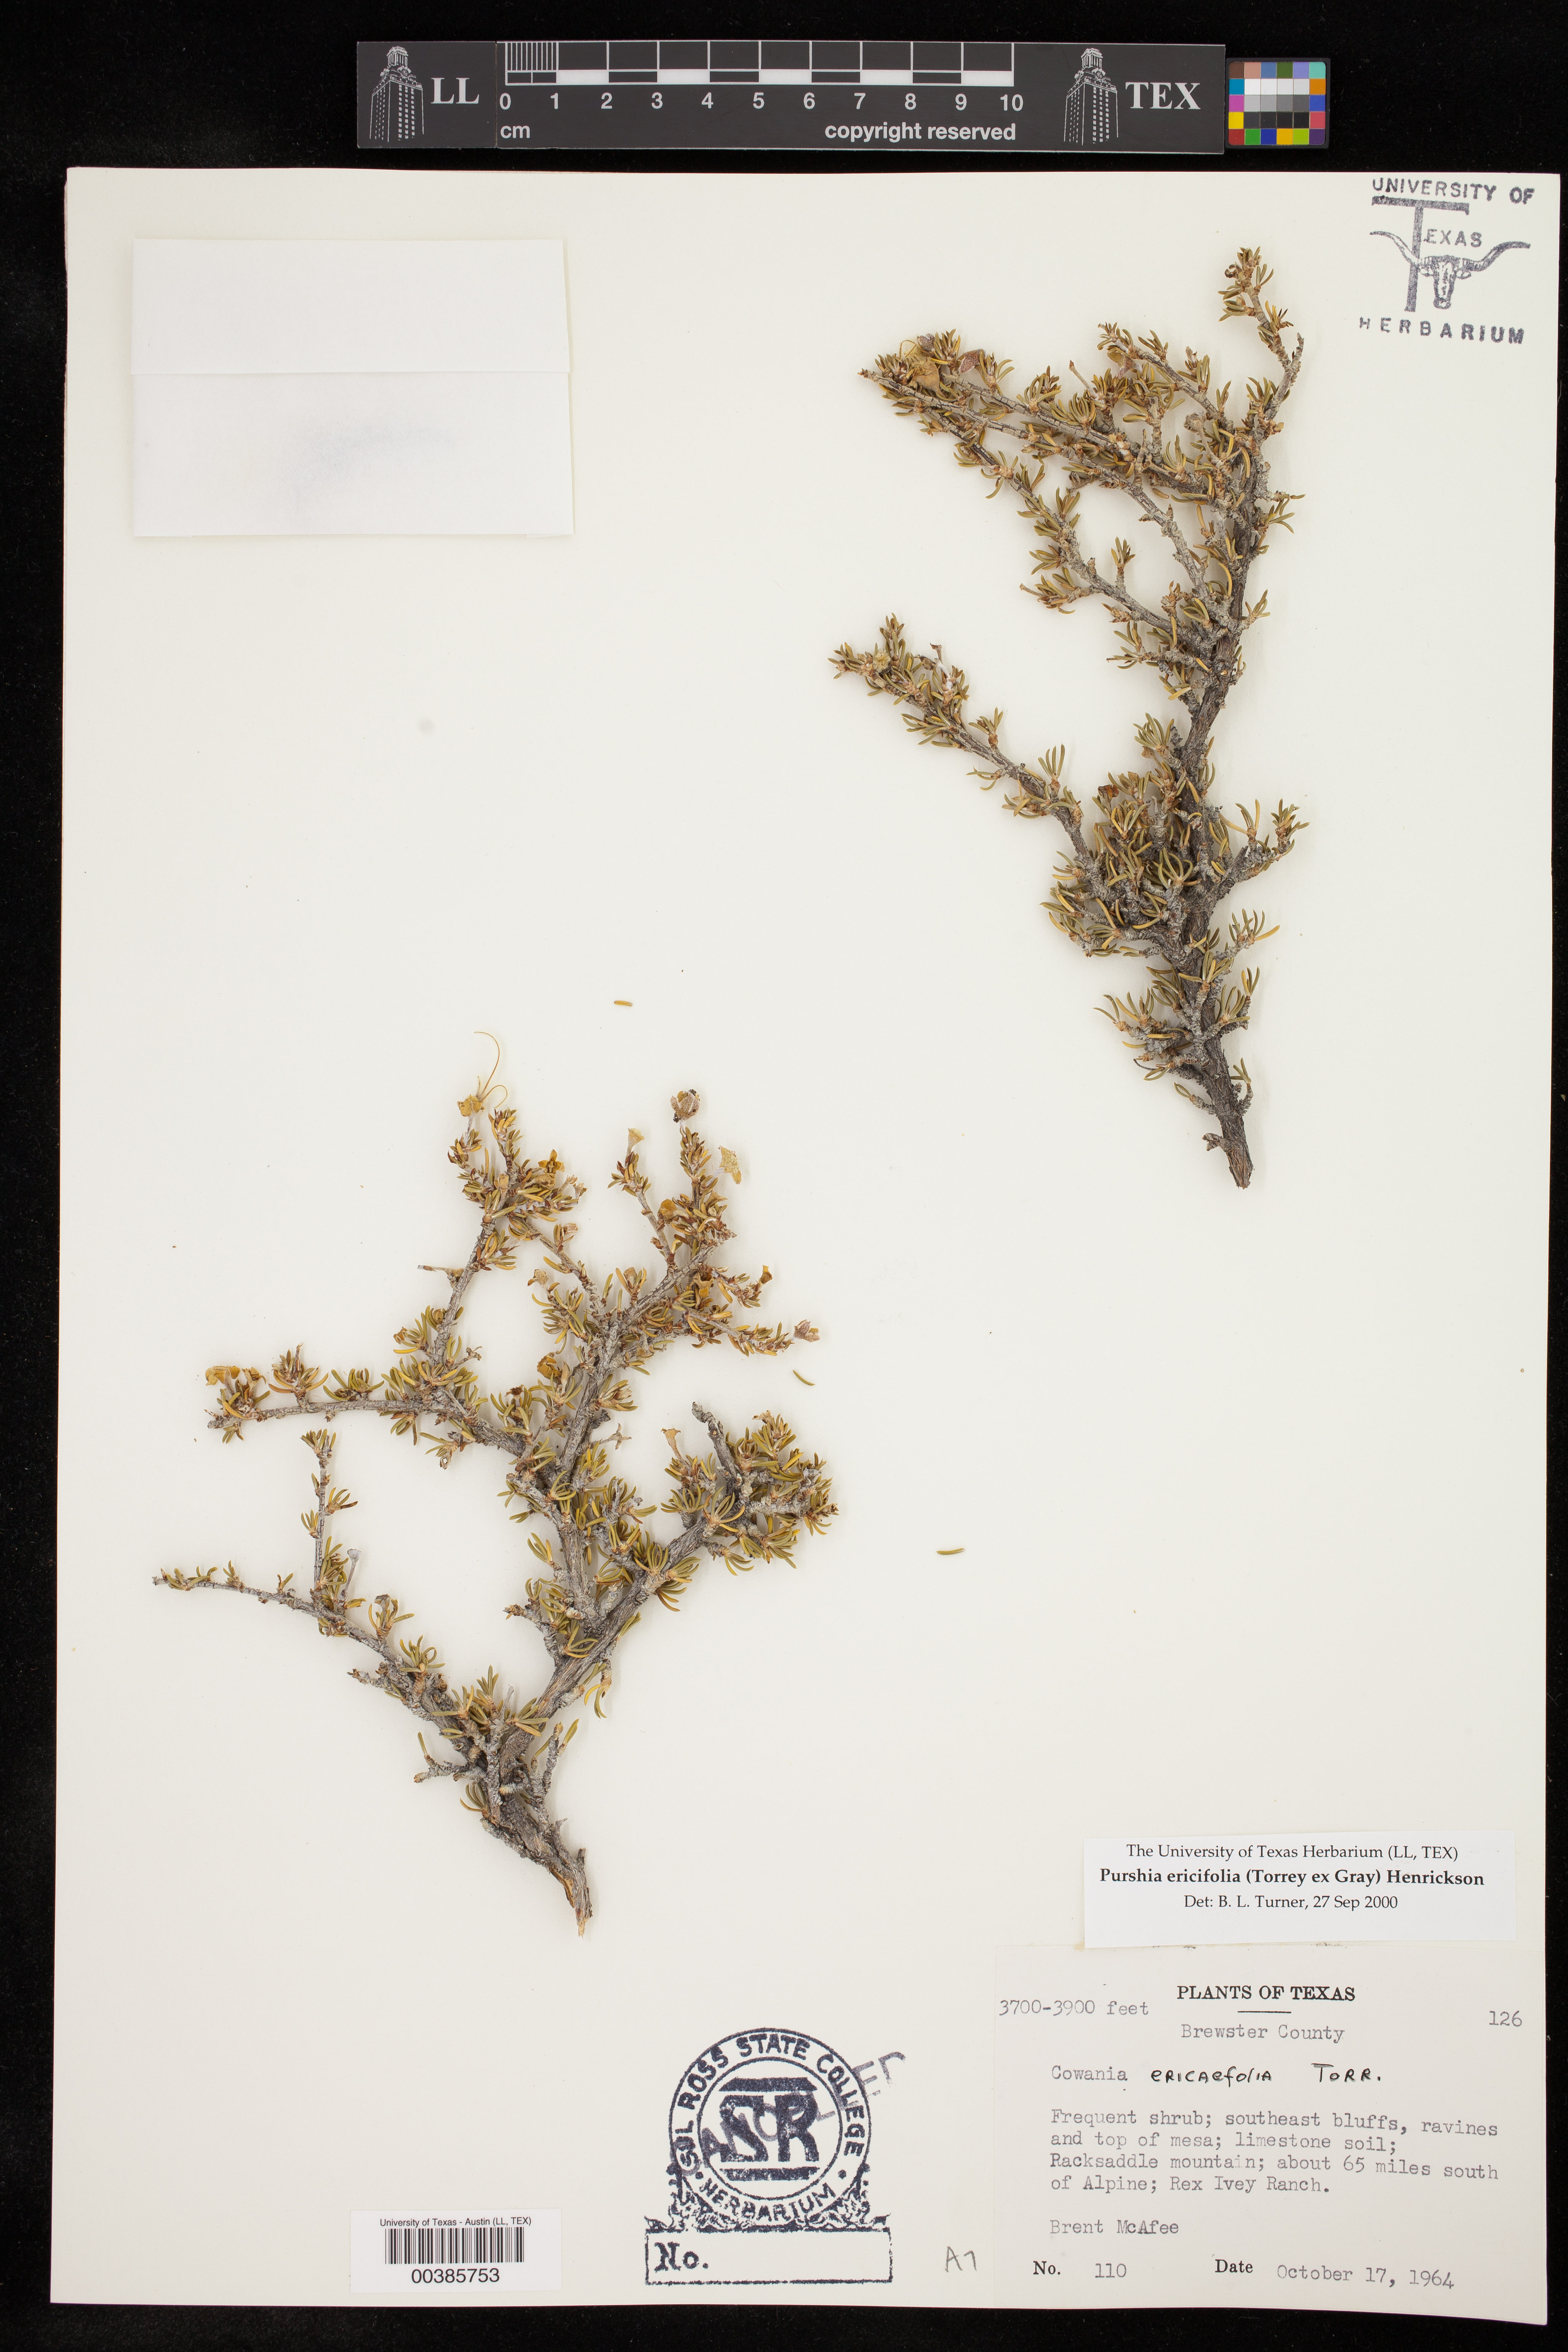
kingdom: Plantae
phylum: Tracheophyta
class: Magnoliopsida
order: Rosales
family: Rosaceae
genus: Purshia
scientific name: Purshia ericifolia
